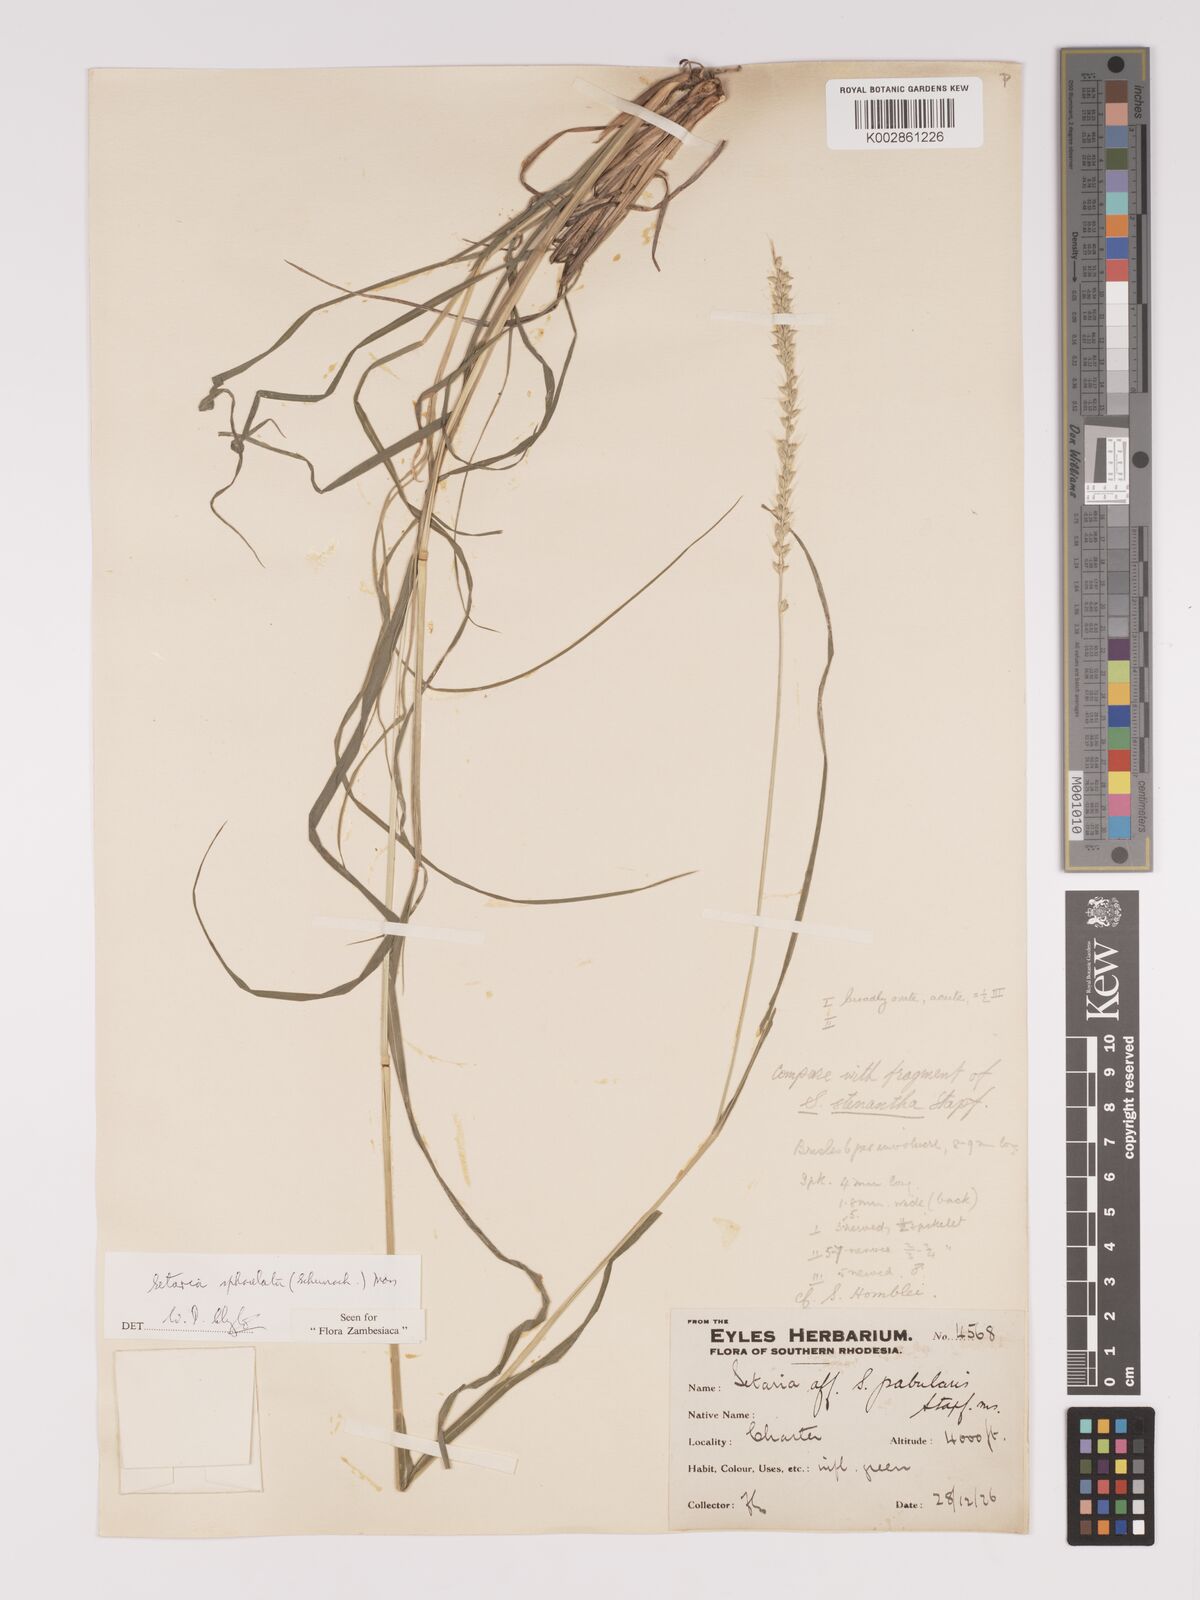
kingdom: Plantae
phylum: Tracheophyta
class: Liliopsida
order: Poales
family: Poaceae
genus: Setaria
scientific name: Setaria sphacelata
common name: African bristlegrass
